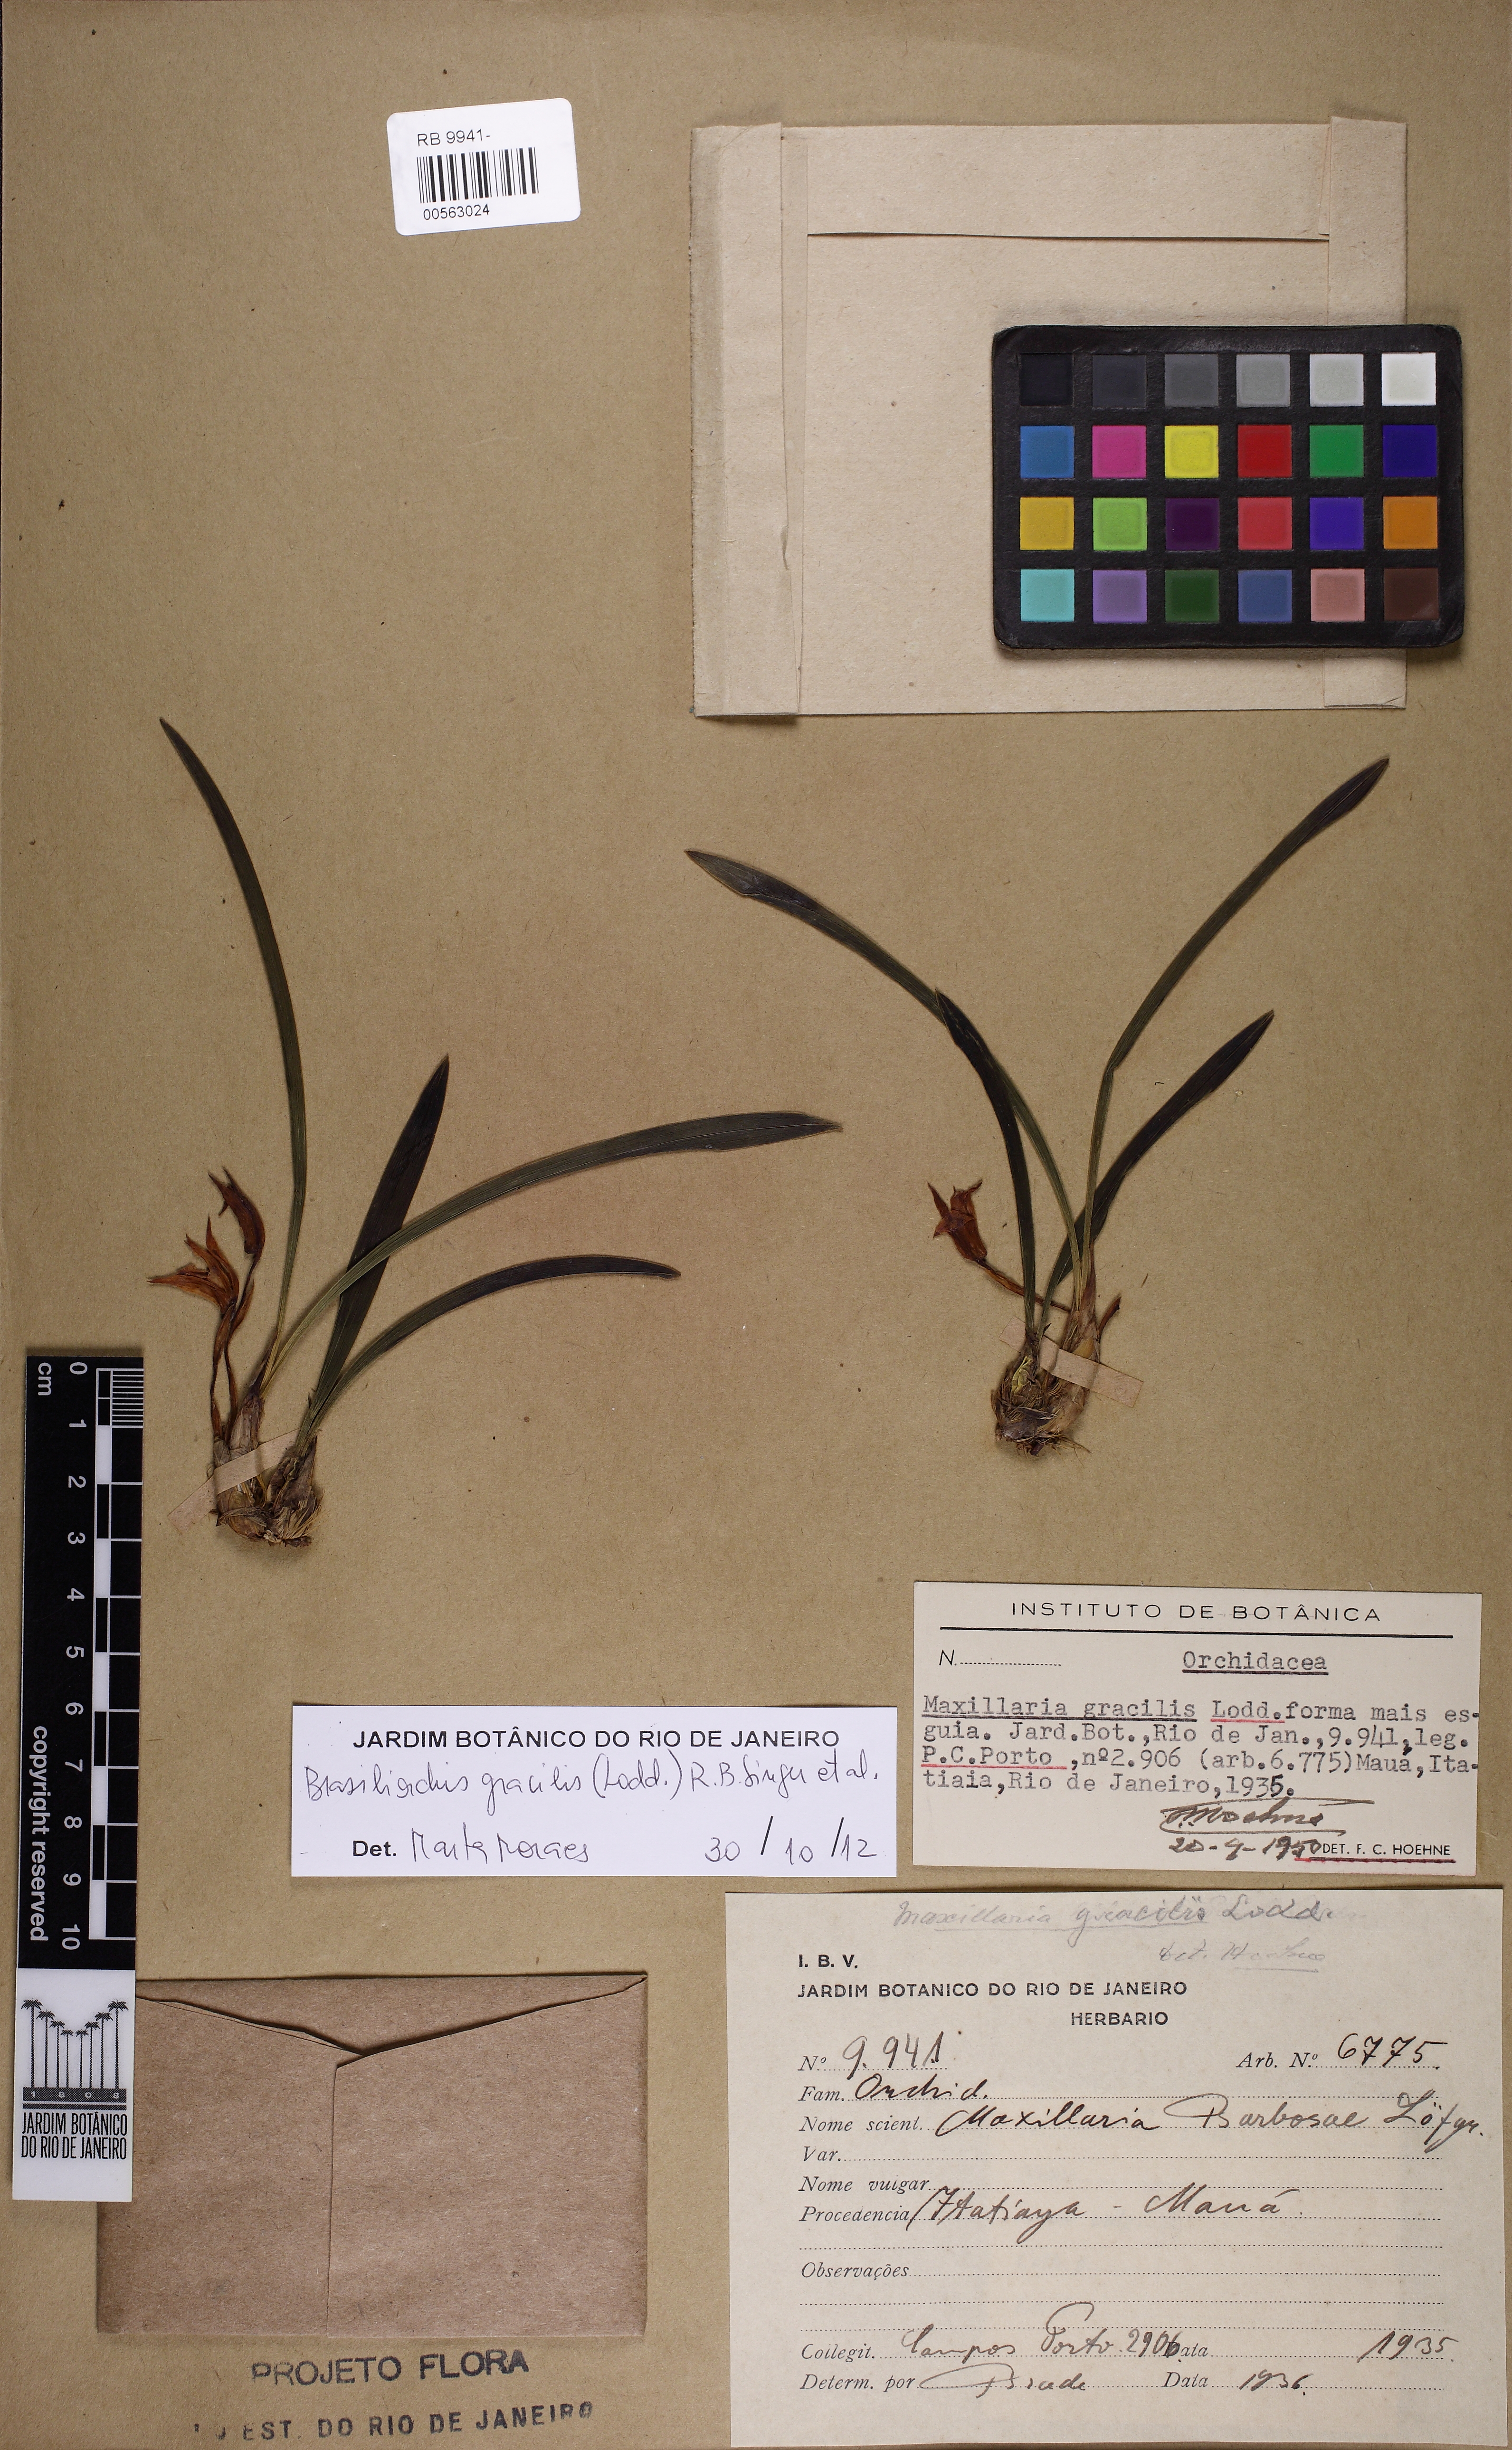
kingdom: Plantae
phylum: Tracheophyta
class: Liliopsida
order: Asparagales
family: Orchidaceae
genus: Maxillaria
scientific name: Maxillaria humilis
